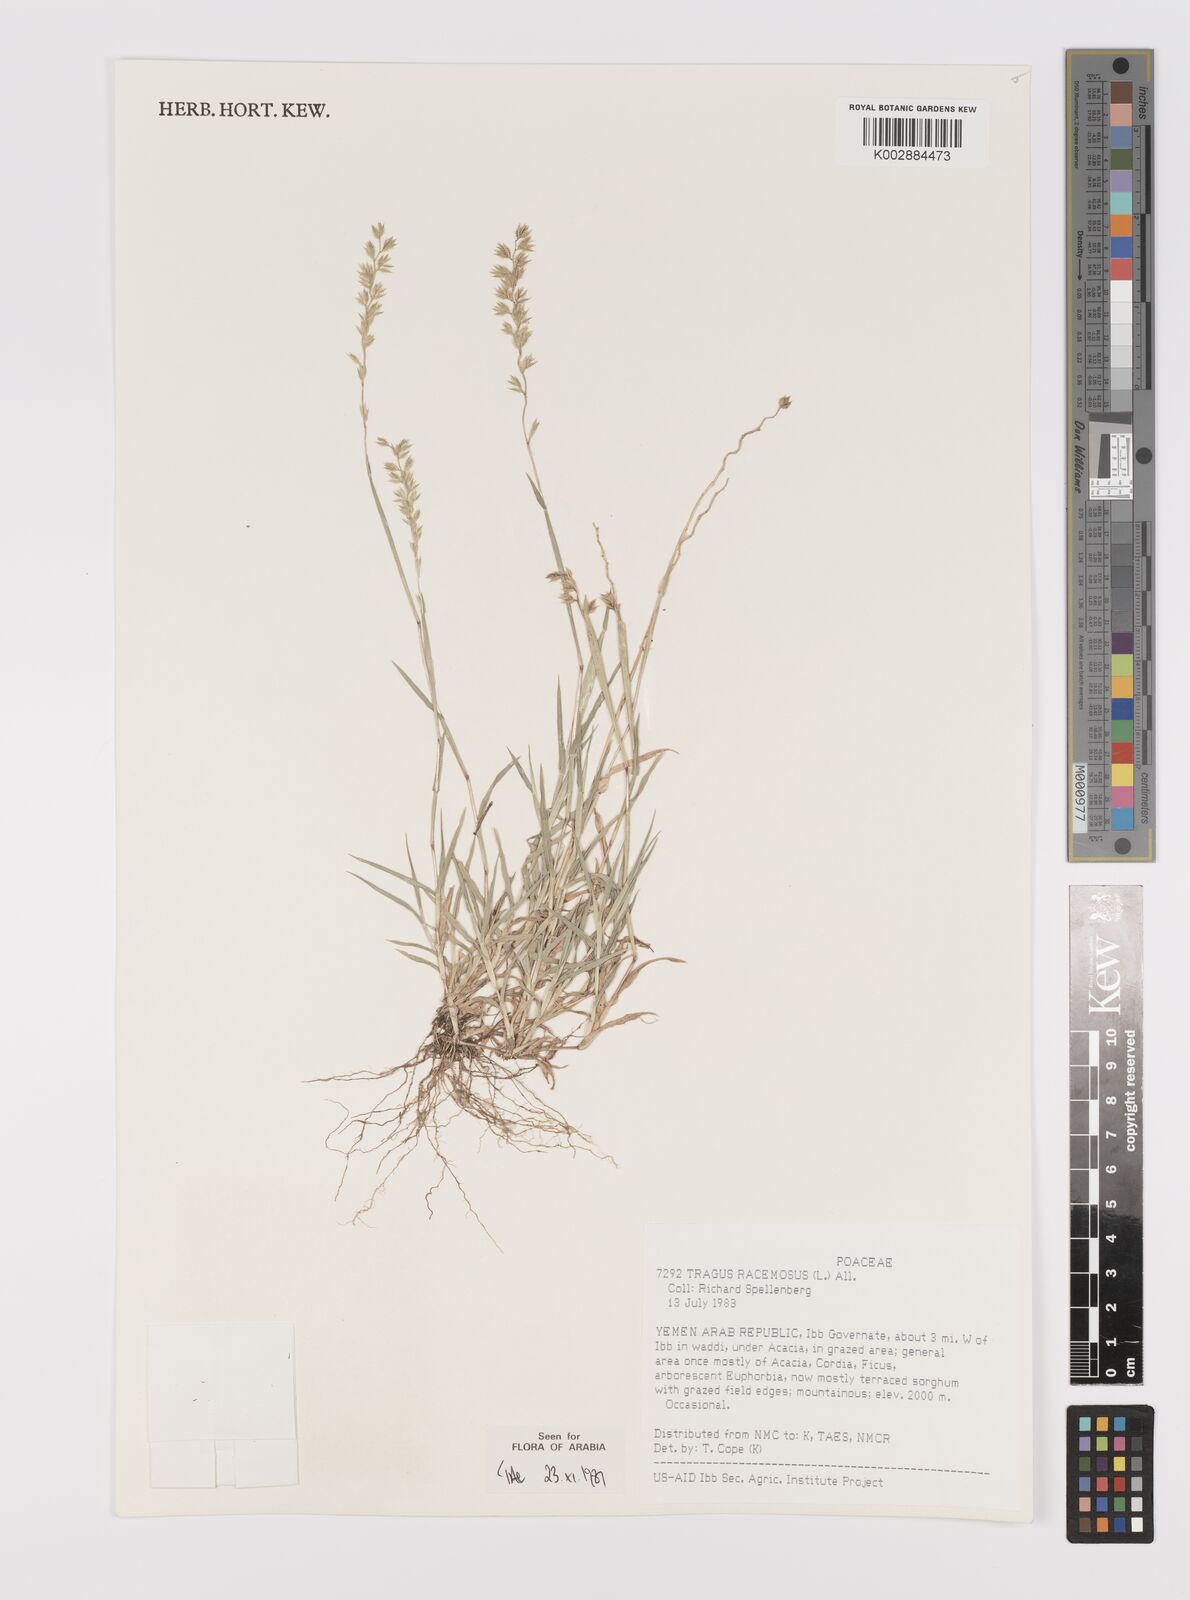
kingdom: Plantae
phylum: Tracheophyta
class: Liliopsida
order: Poales
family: Poaceae
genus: Tragus
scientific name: Tragus racemosus
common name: European bur-grass
